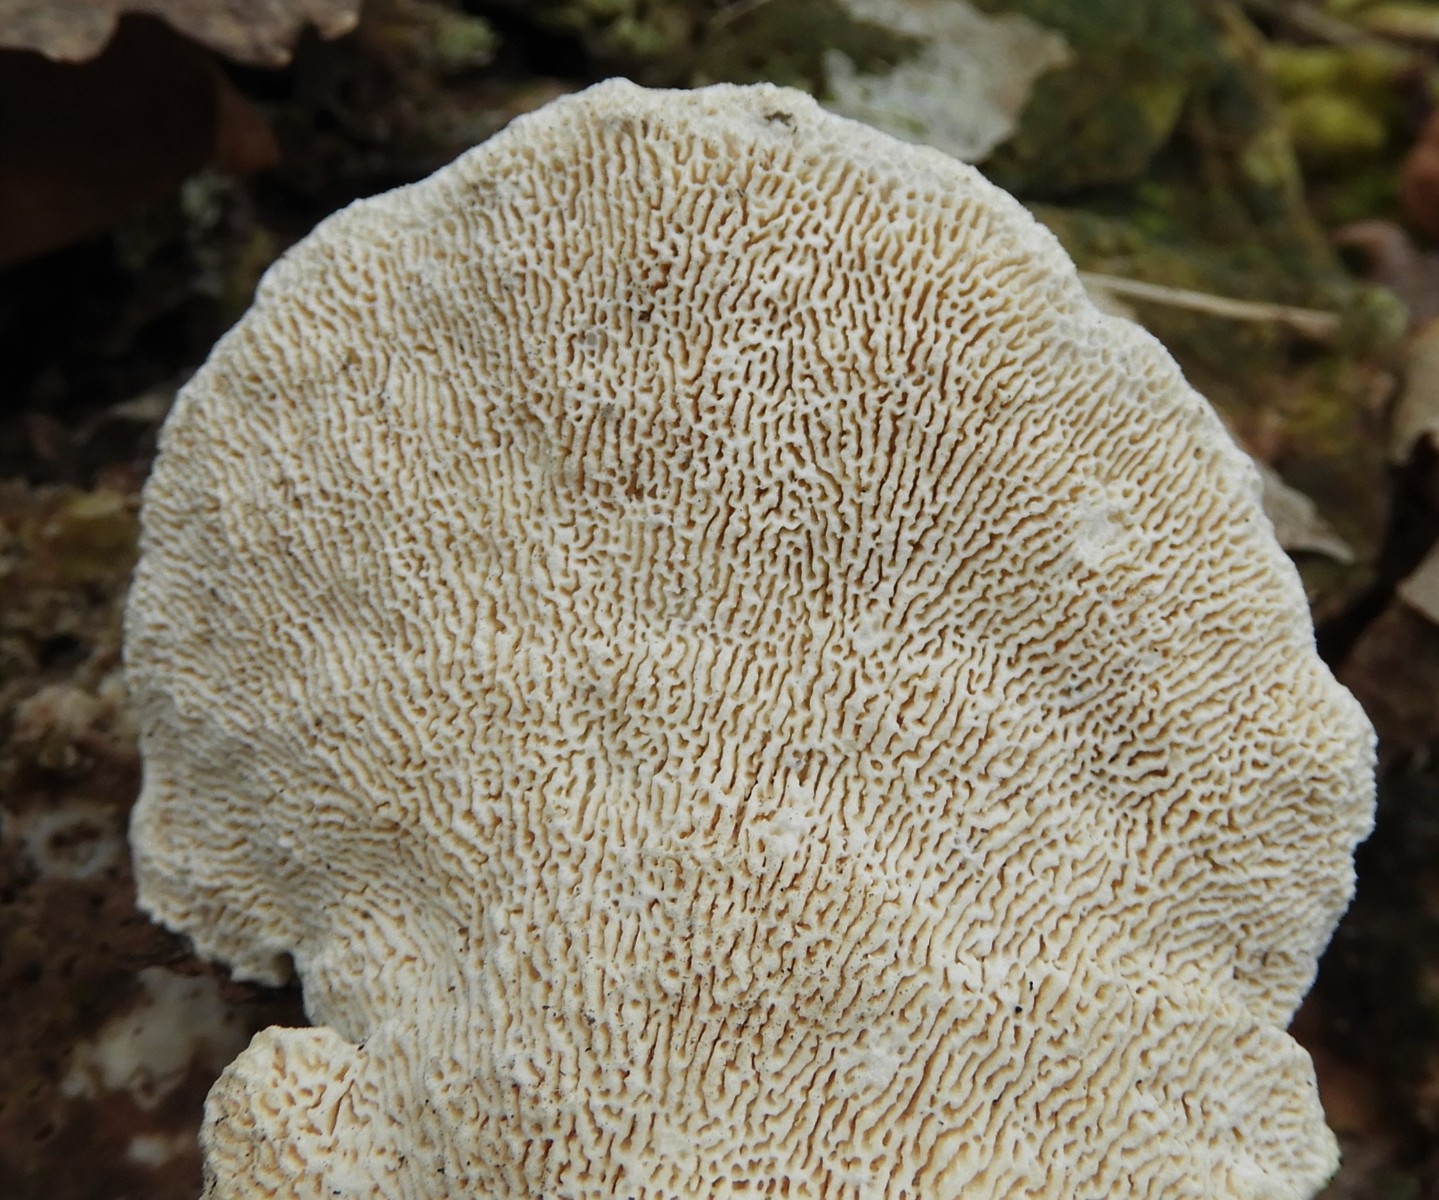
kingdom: Fungi
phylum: Basidiomycota
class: Agaricomycetes
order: Polyporales
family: Polyporaceae
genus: Trametes
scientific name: Trametes gibbosa
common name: puklet læderporesvamp
